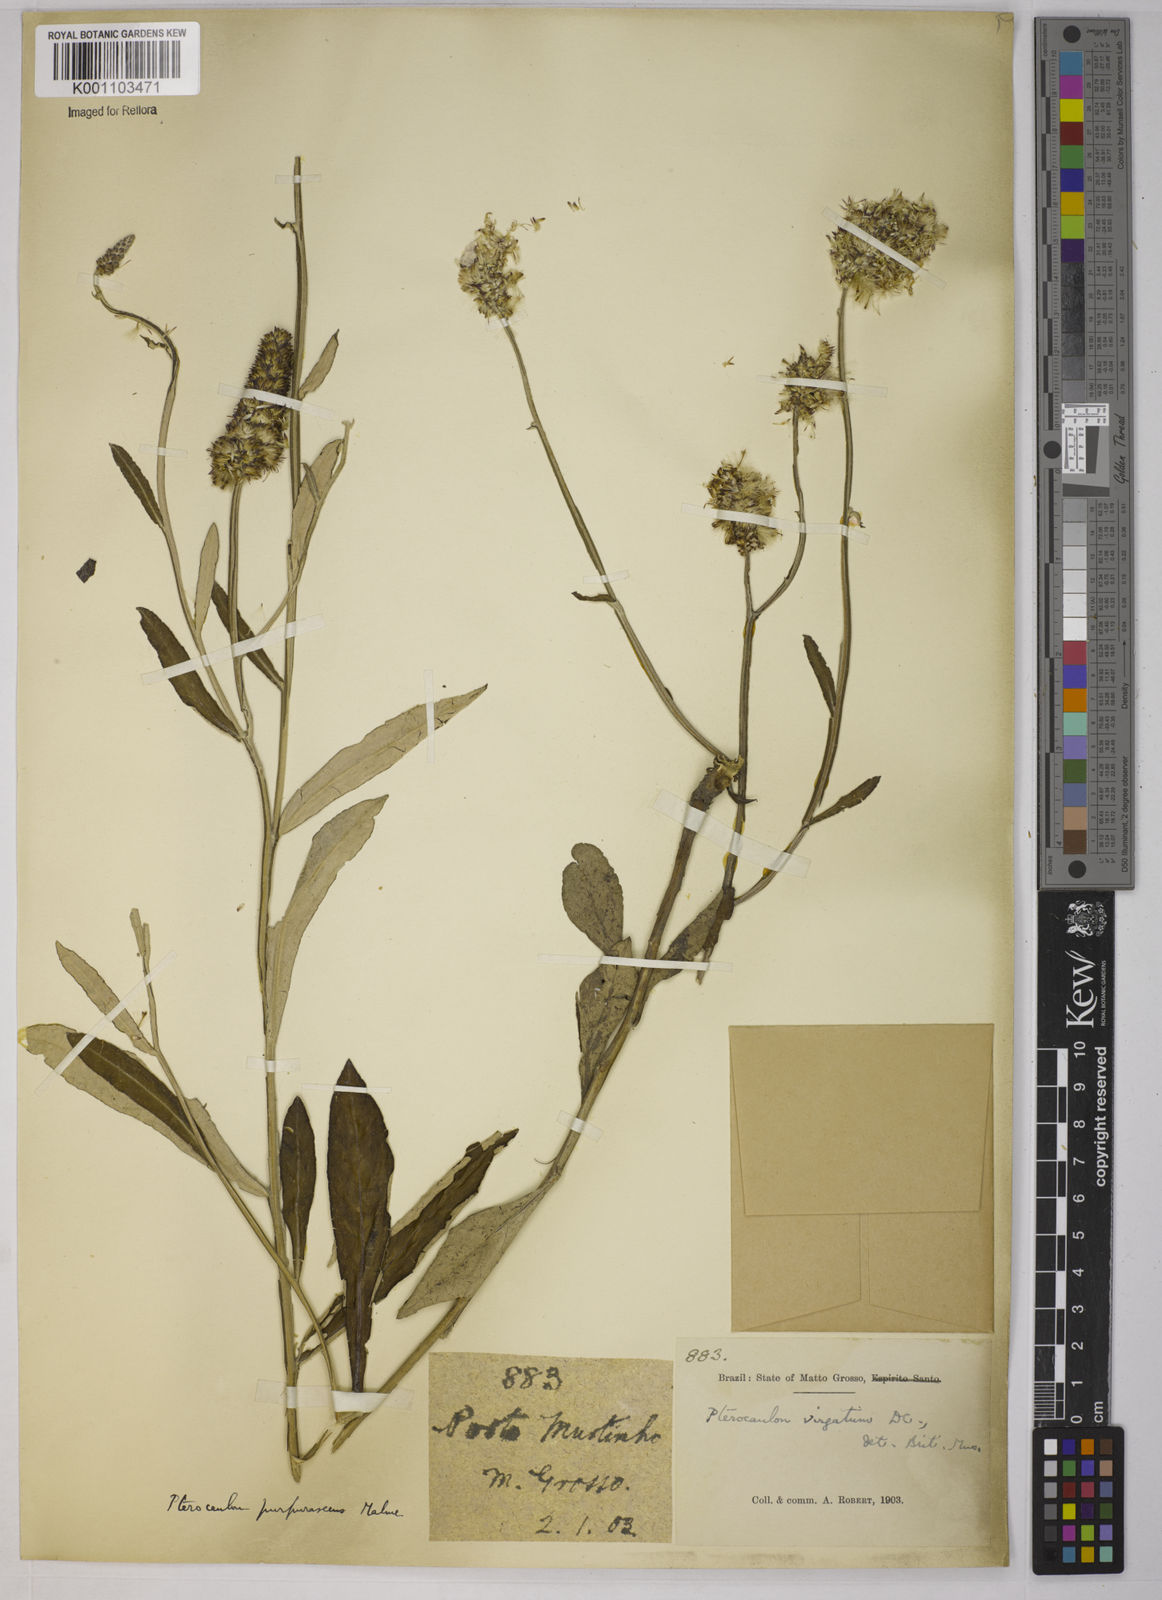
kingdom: Plantae
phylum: Tracheophyta
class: Magnoliopsida
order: Asterales
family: Asteraceae
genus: Pterocaulon
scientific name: Pterocaulon purpurascens
